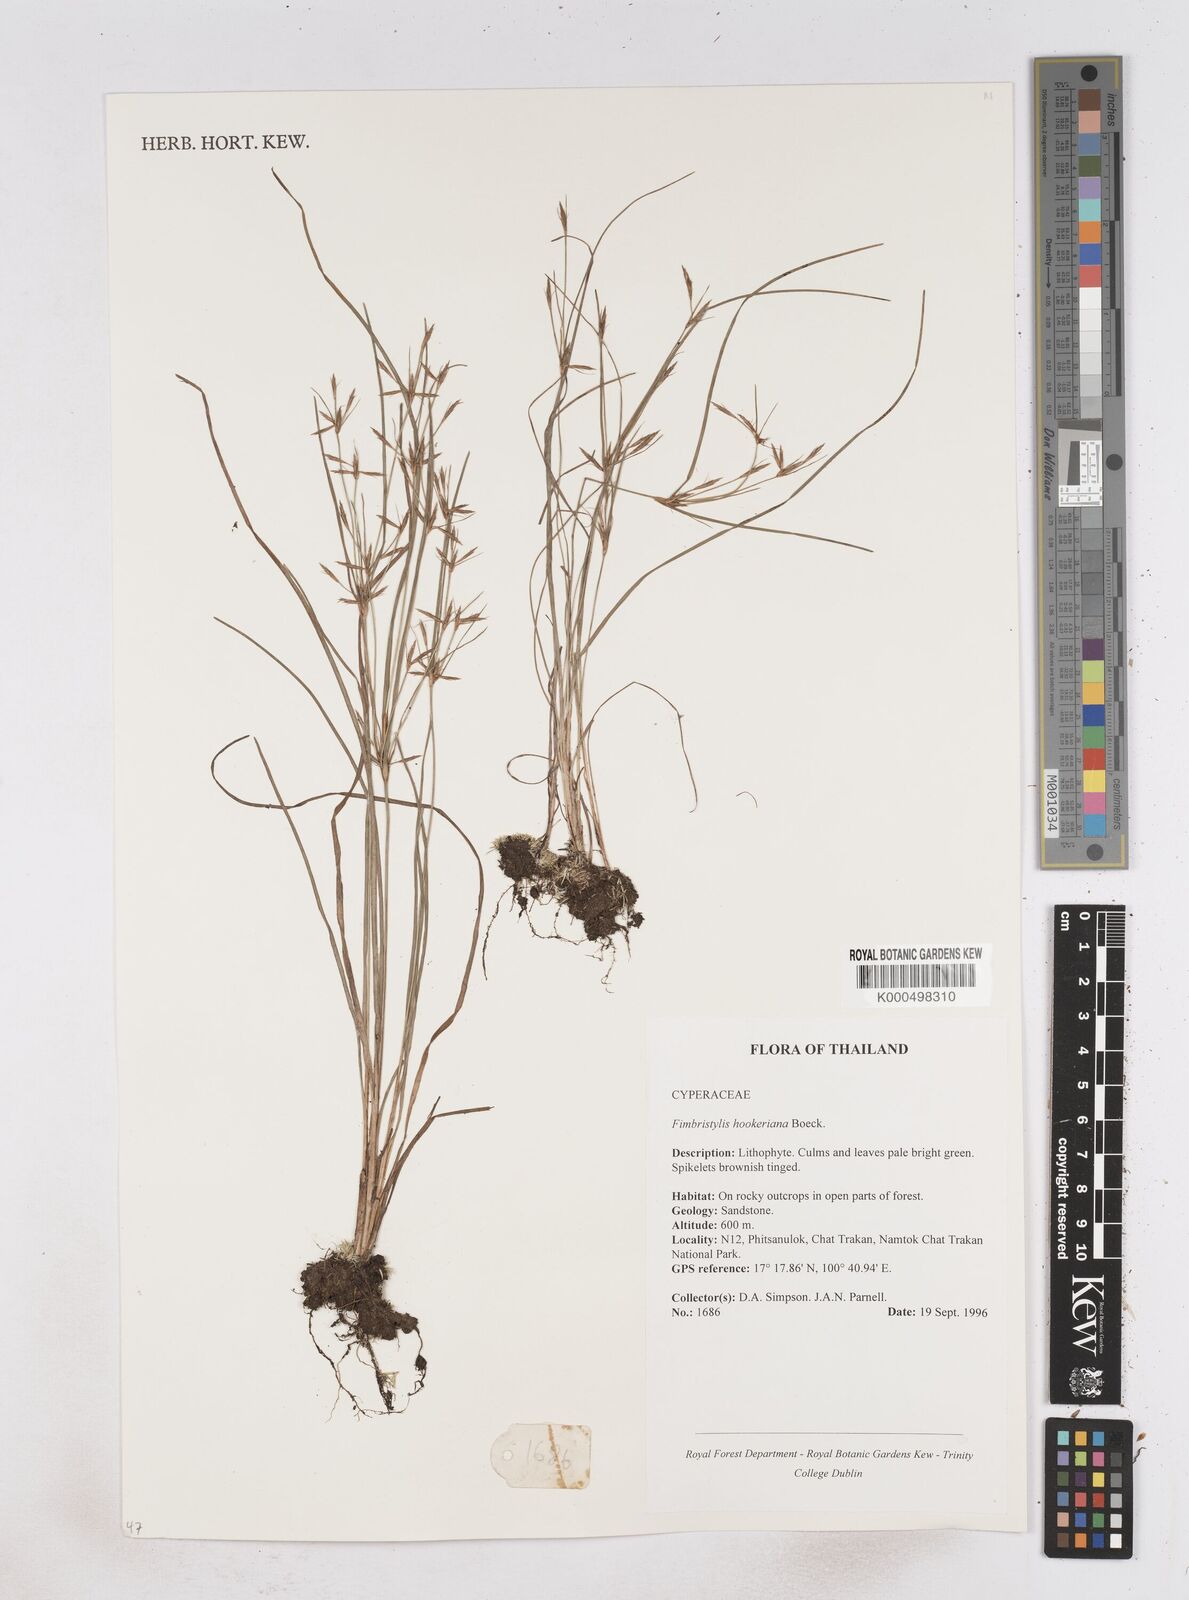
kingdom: Plantae
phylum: Tracheophyta
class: Liliopsida
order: Poales
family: Cyperaceae
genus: Fimbristylis
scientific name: Fimbristylis hookeriana
